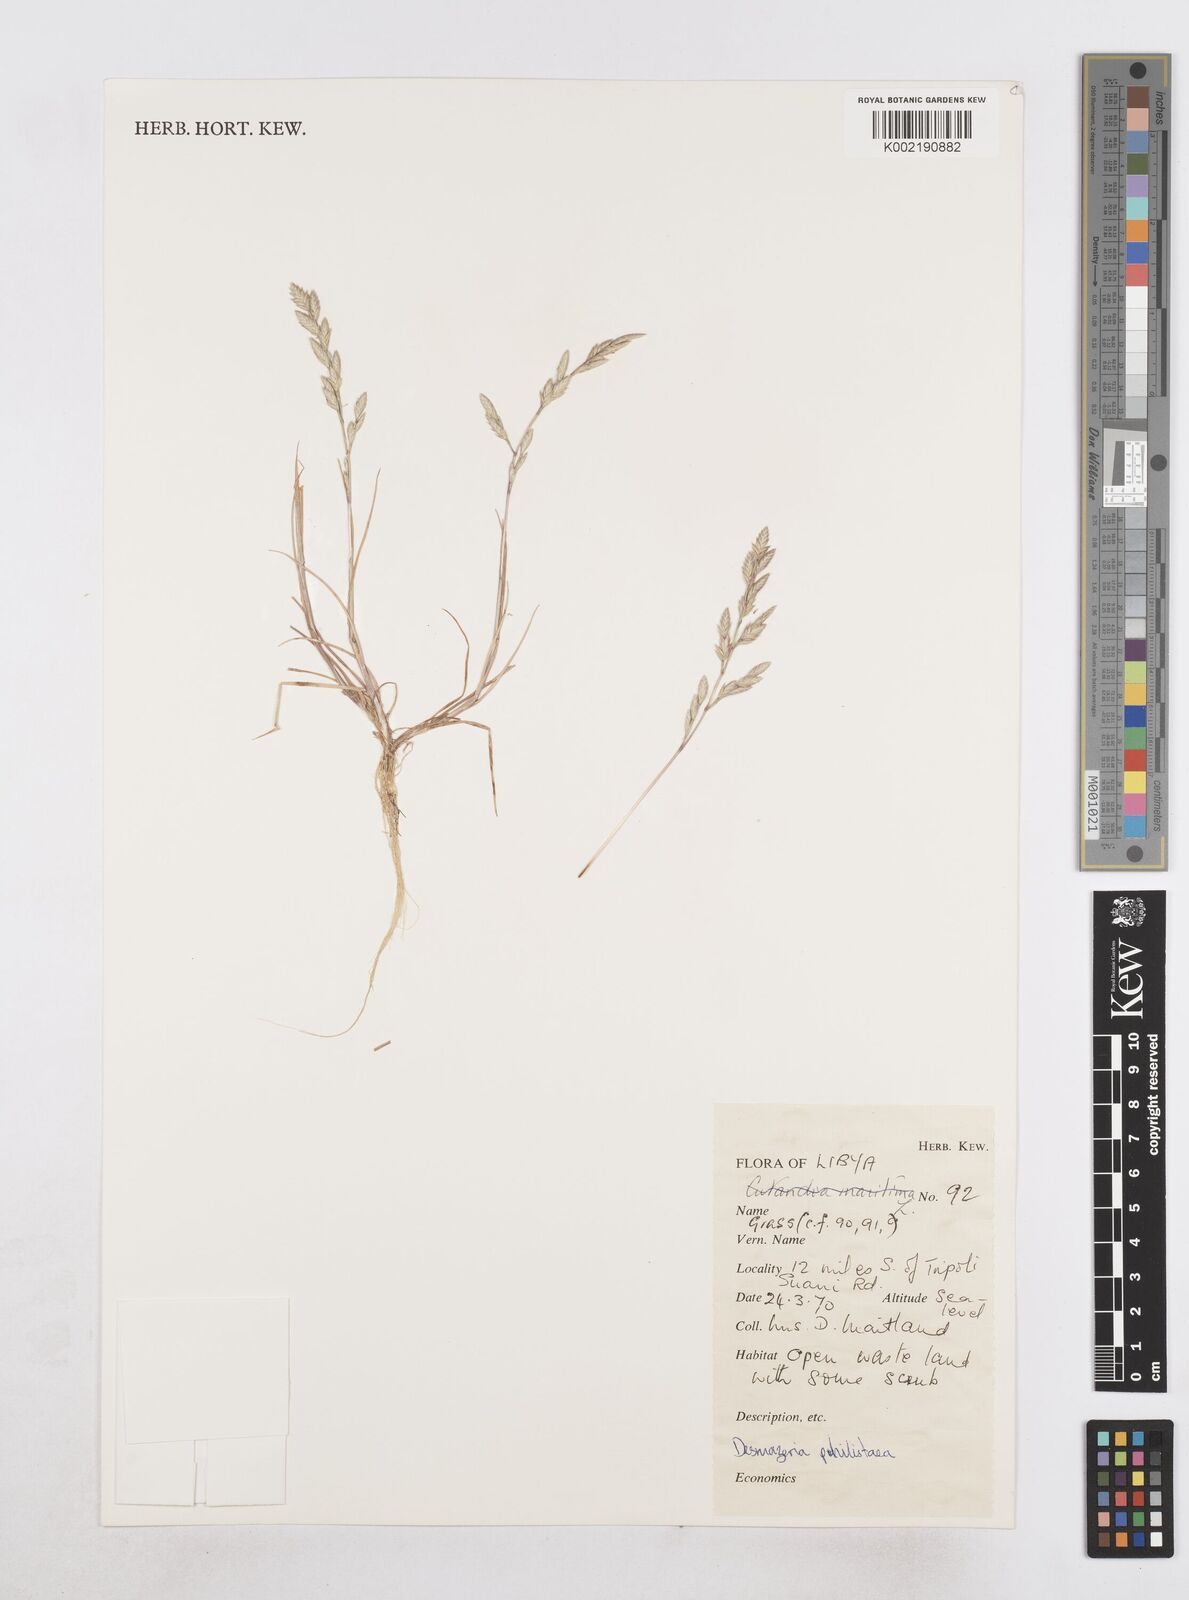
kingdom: Plantae
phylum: Tracheophyta
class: Liliopsida
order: Poales
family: Poaceae
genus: Desmazeria
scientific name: Desmazeria philistaea
